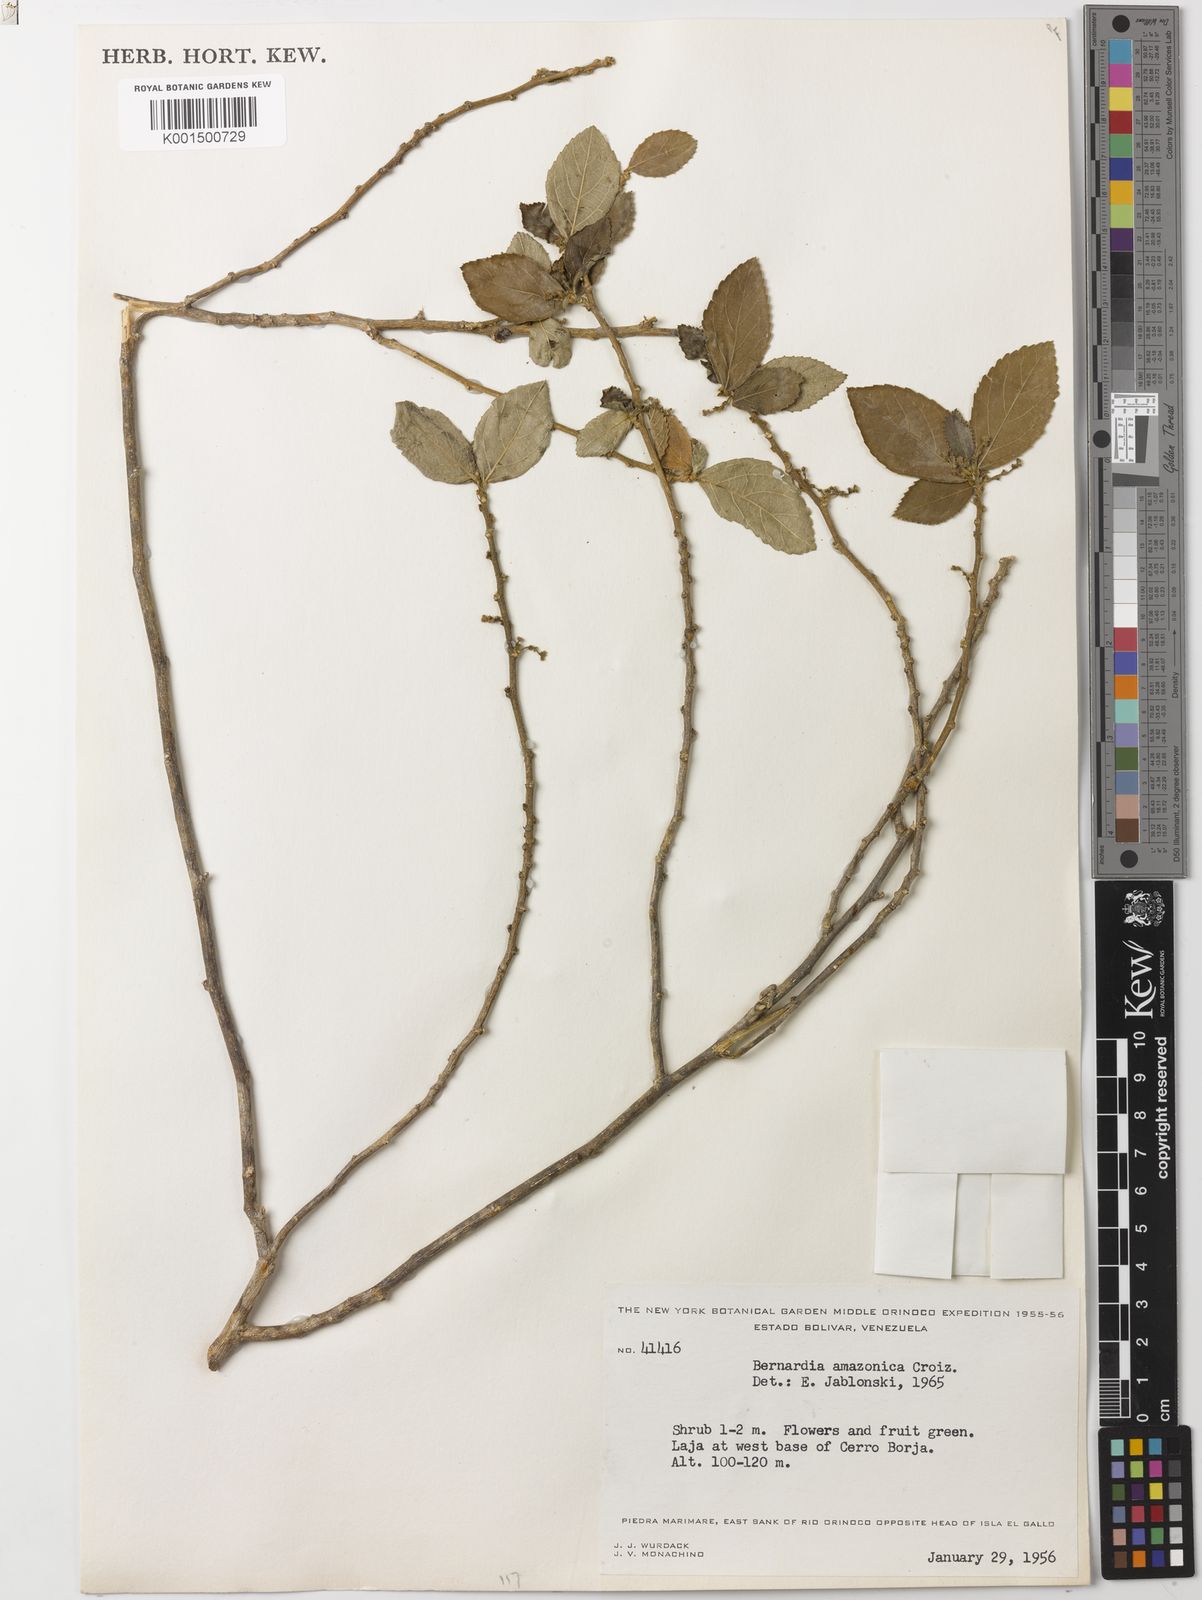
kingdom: Plantae
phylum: Tracheophyta
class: Magnoliopsida
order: Malpighiales
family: Euphorbiaceae
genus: Bernardia
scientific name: Bernardia amazonica
